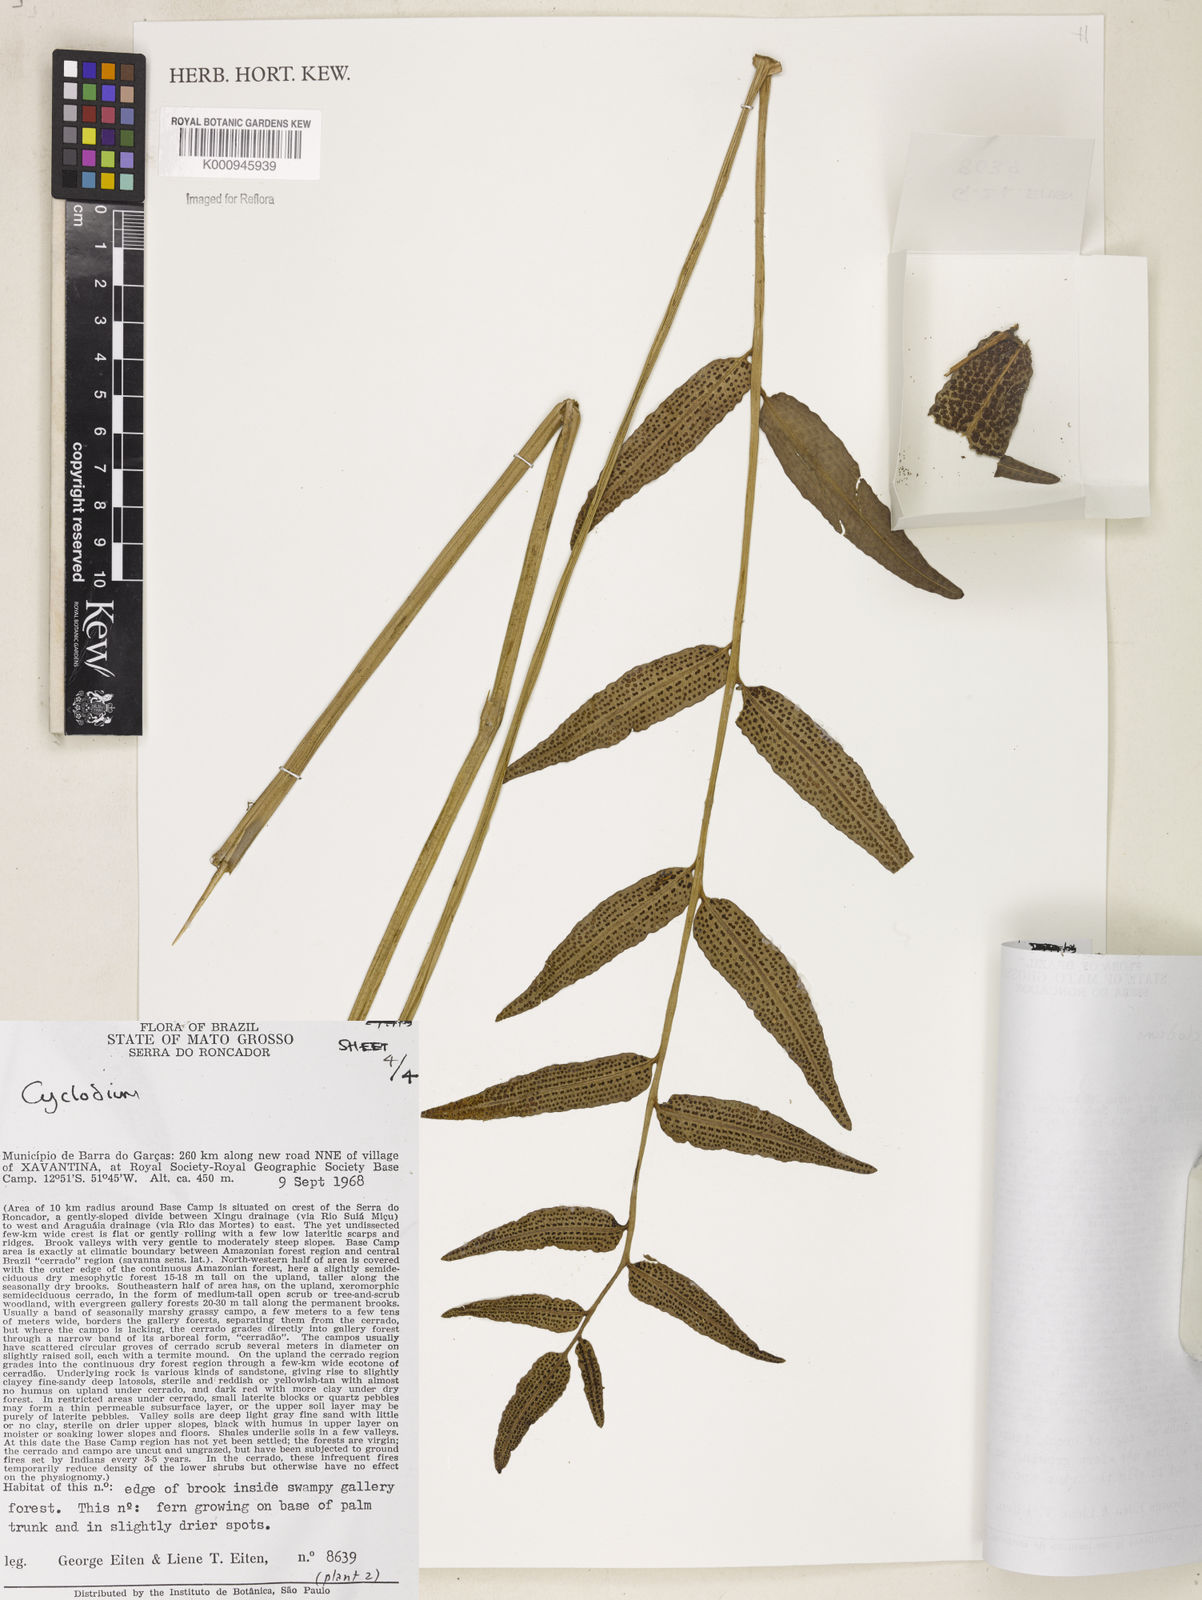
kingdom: Plantae
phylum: Tracheophyta
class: Polypodiopsida
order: Polypodiales
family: Dryopteridaceae
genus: Cyclodium
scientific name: Cyclodium meniscioides
